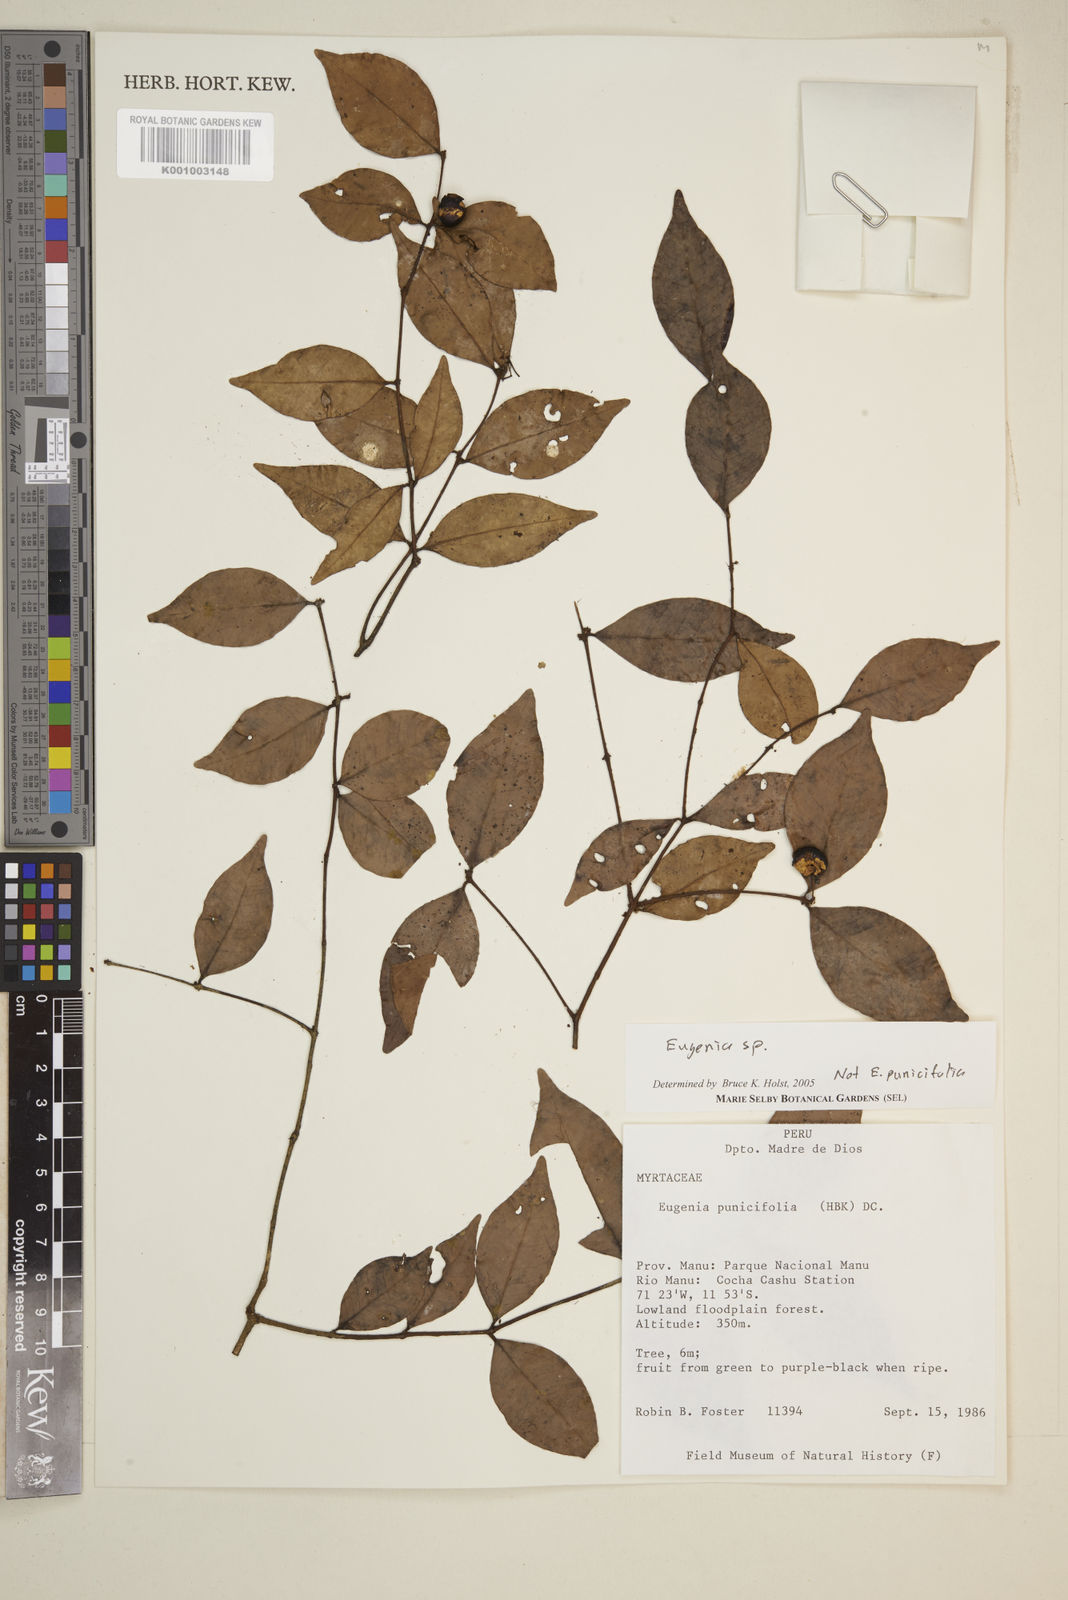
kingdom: Plantae
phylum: Tracheophyta
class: Magnoliopsida
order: Myrtales
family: Myrtaceae
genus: Eugenia
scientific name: Eugenia
